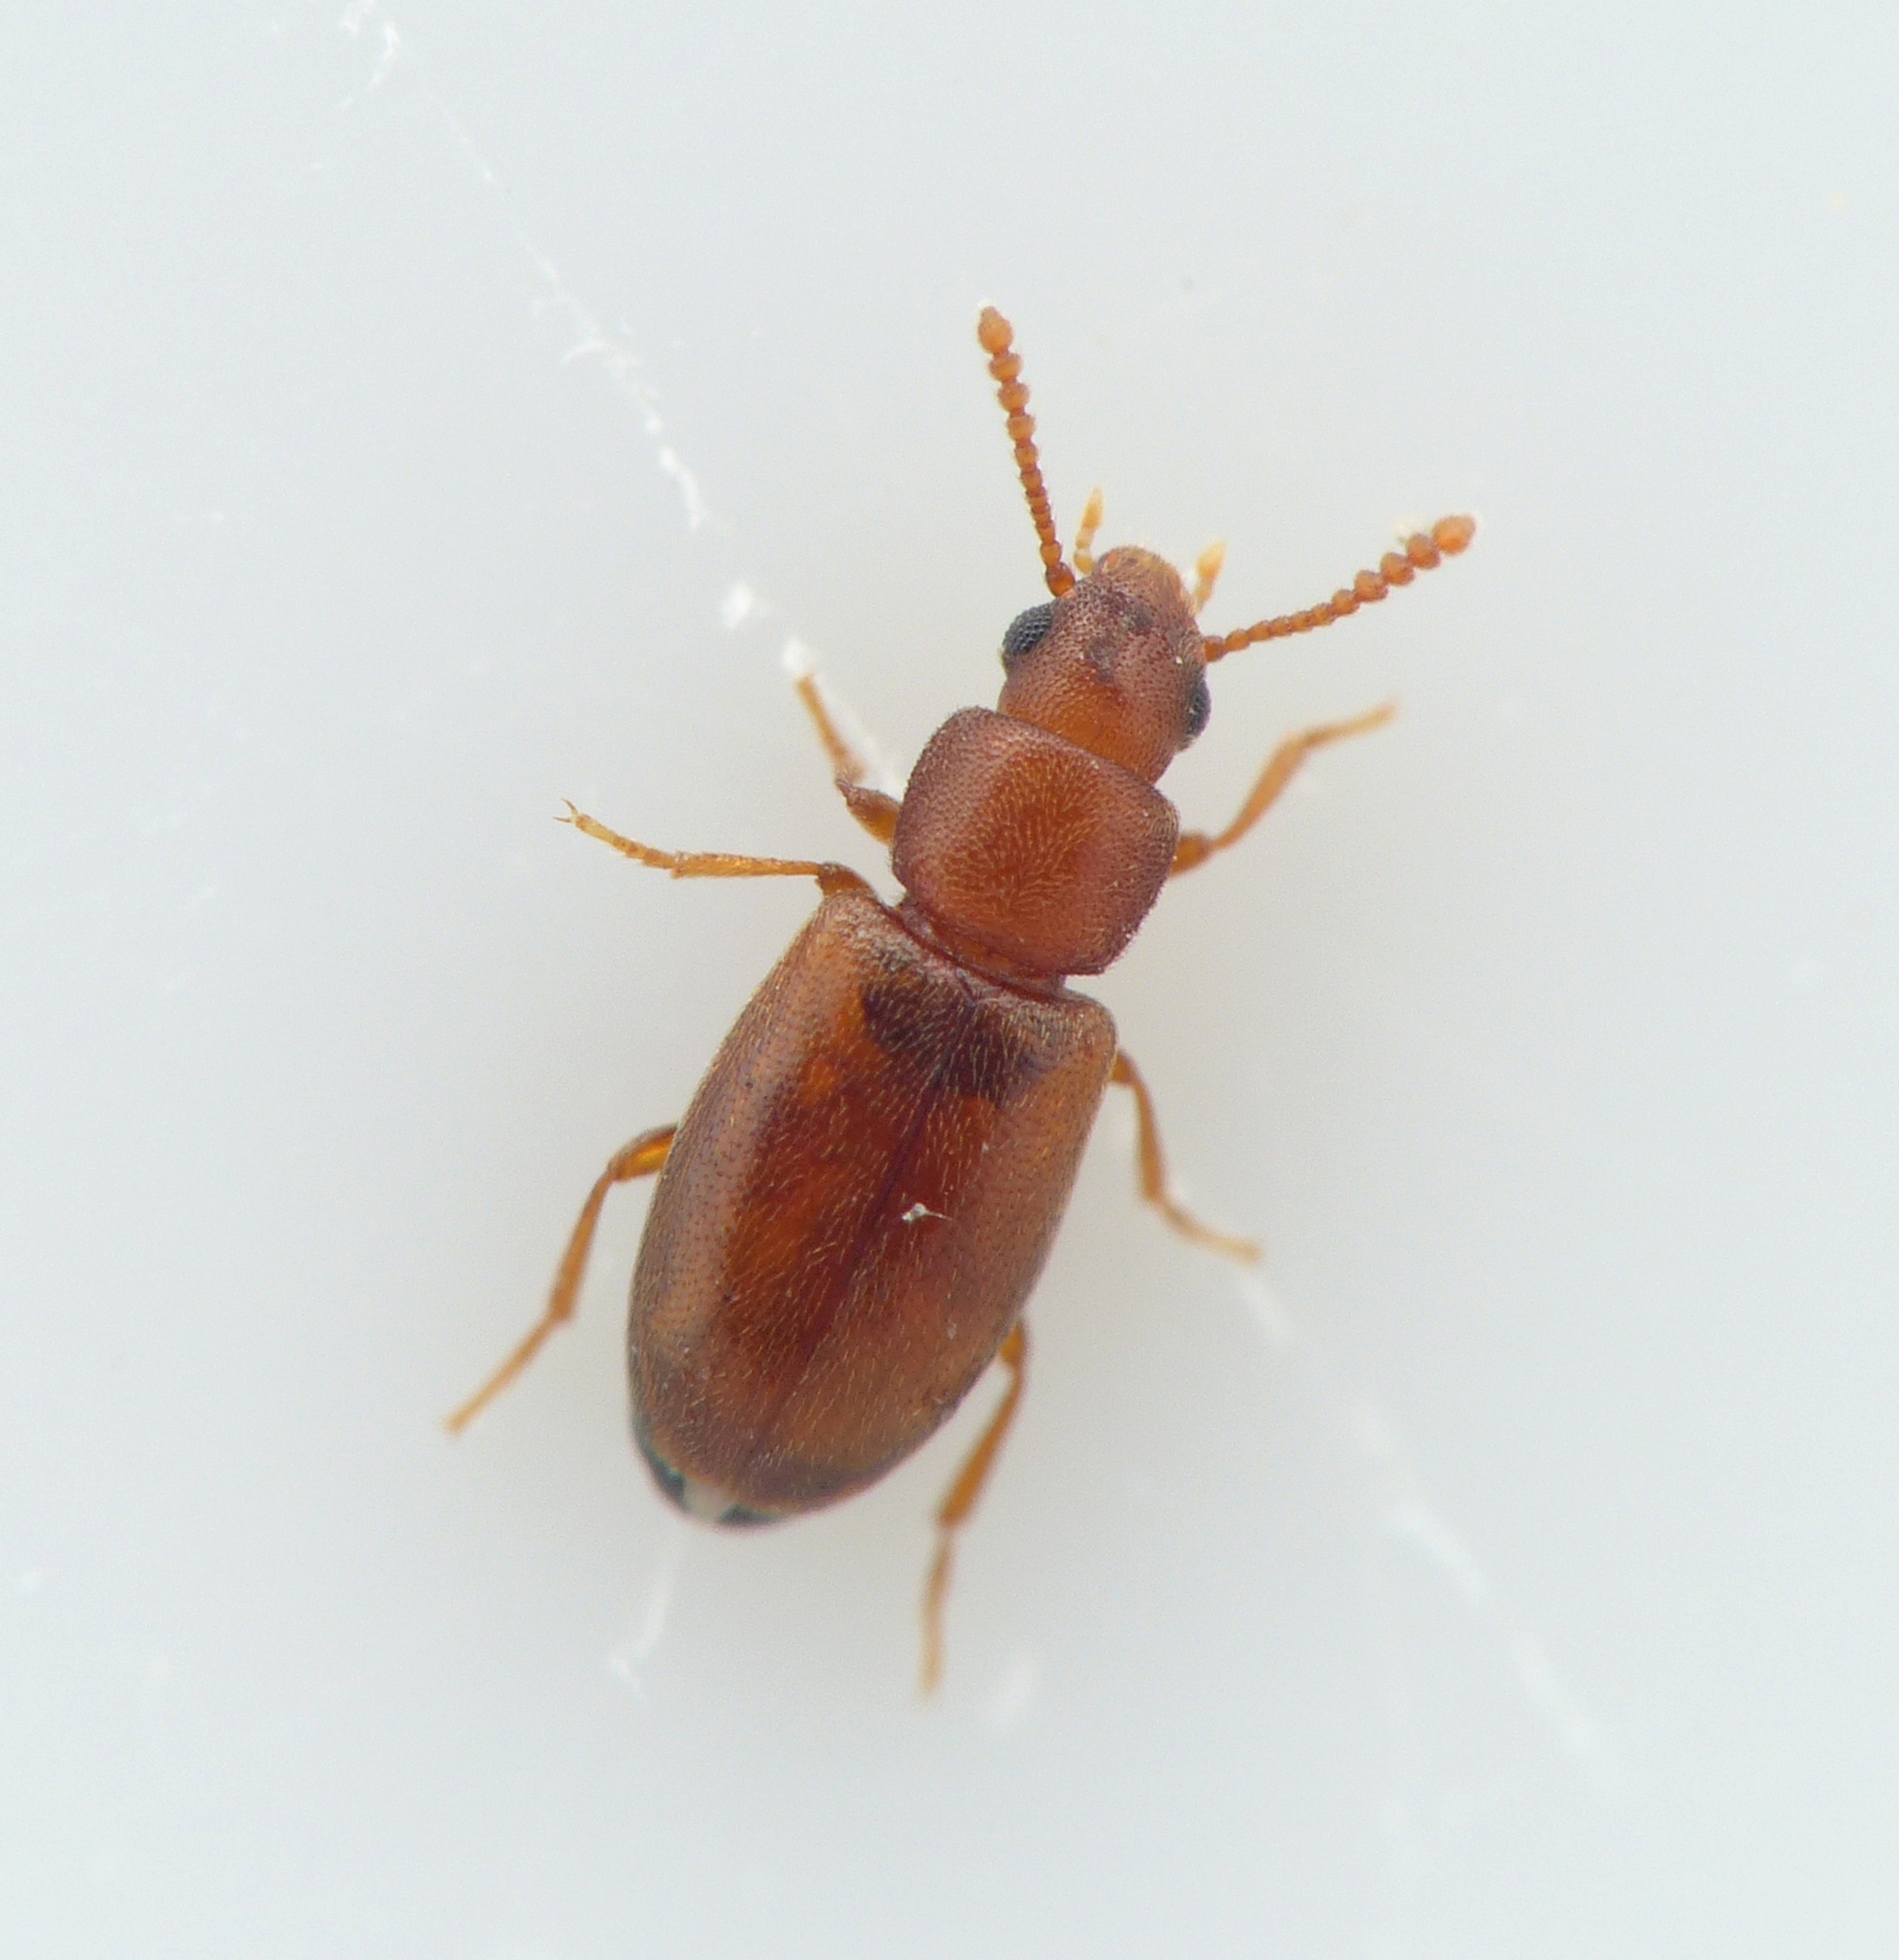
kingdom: Animalia
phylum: Arthropoda
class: Insecta
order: Coleoptera
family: Tenebrionidae
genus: Myrmechixenus
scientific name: Myrmechixenus vaporariorum
